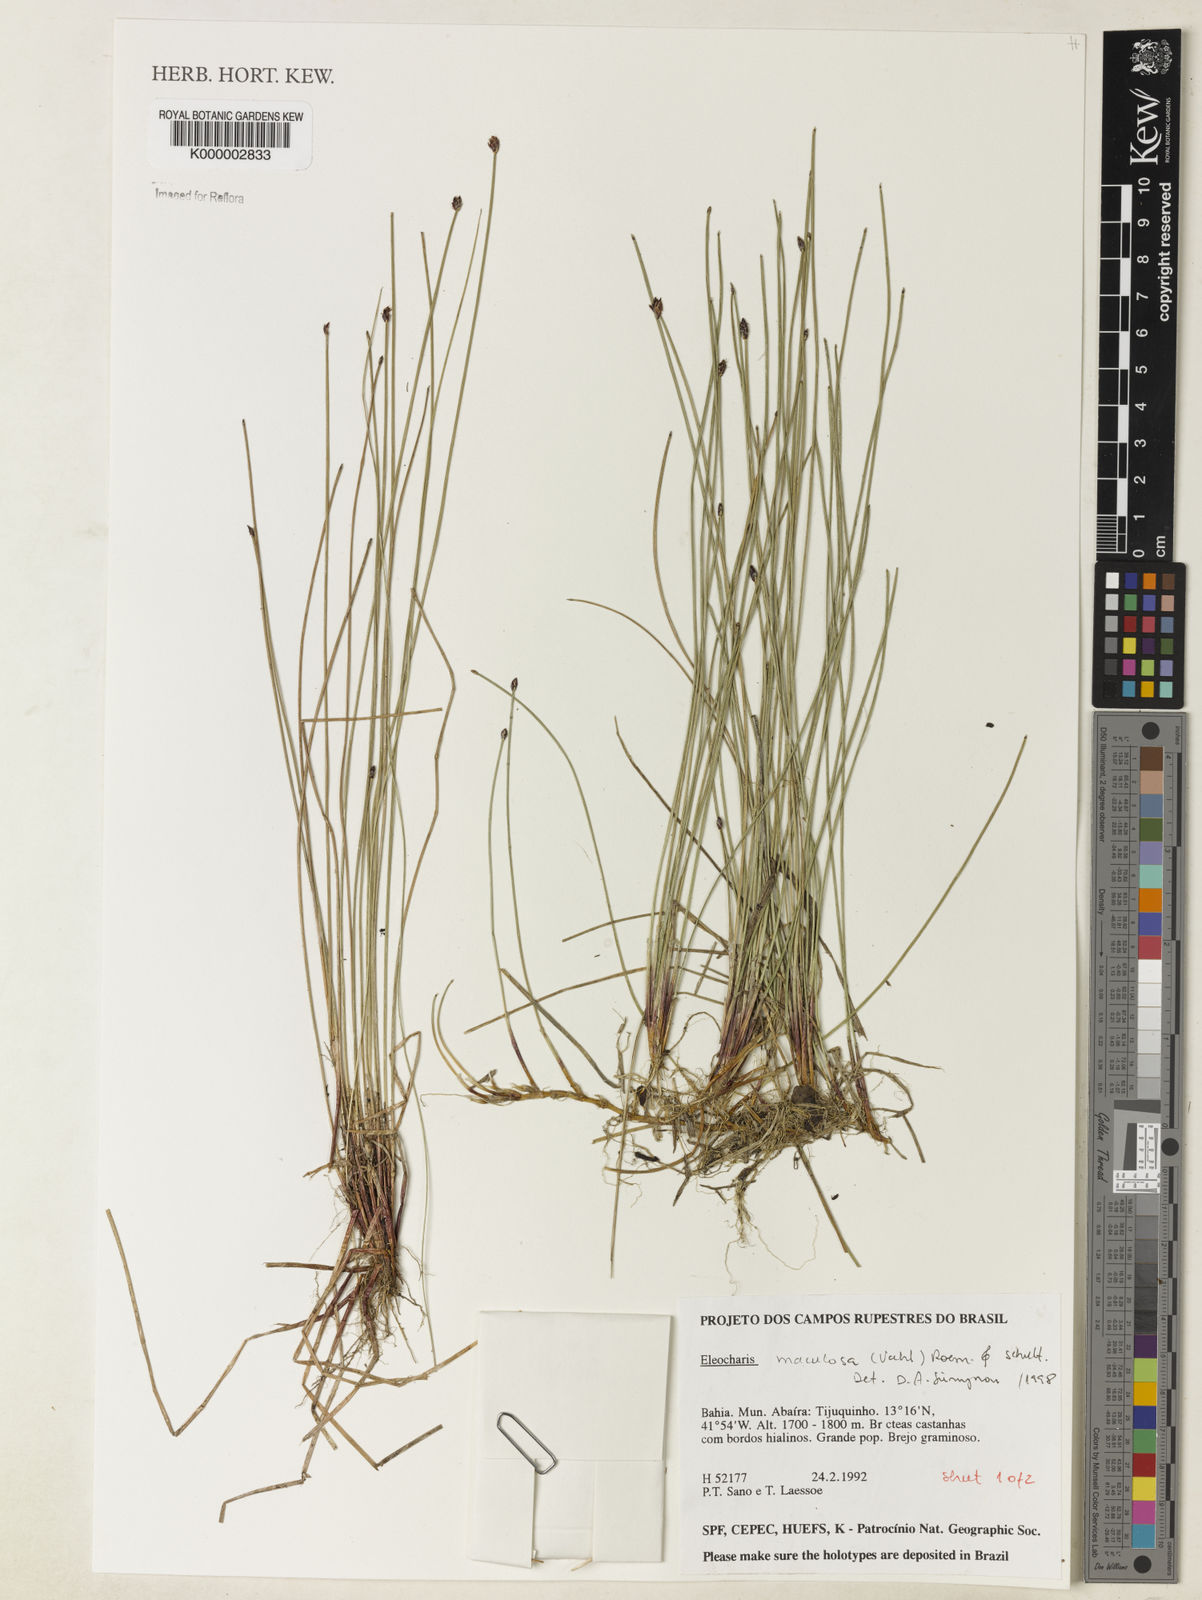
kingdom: Plantae
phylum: Tracheophyta
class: Liliopsida
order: Poales
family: Cyperaceae
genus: Eleocharis
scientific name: Eleocharis maculosa
